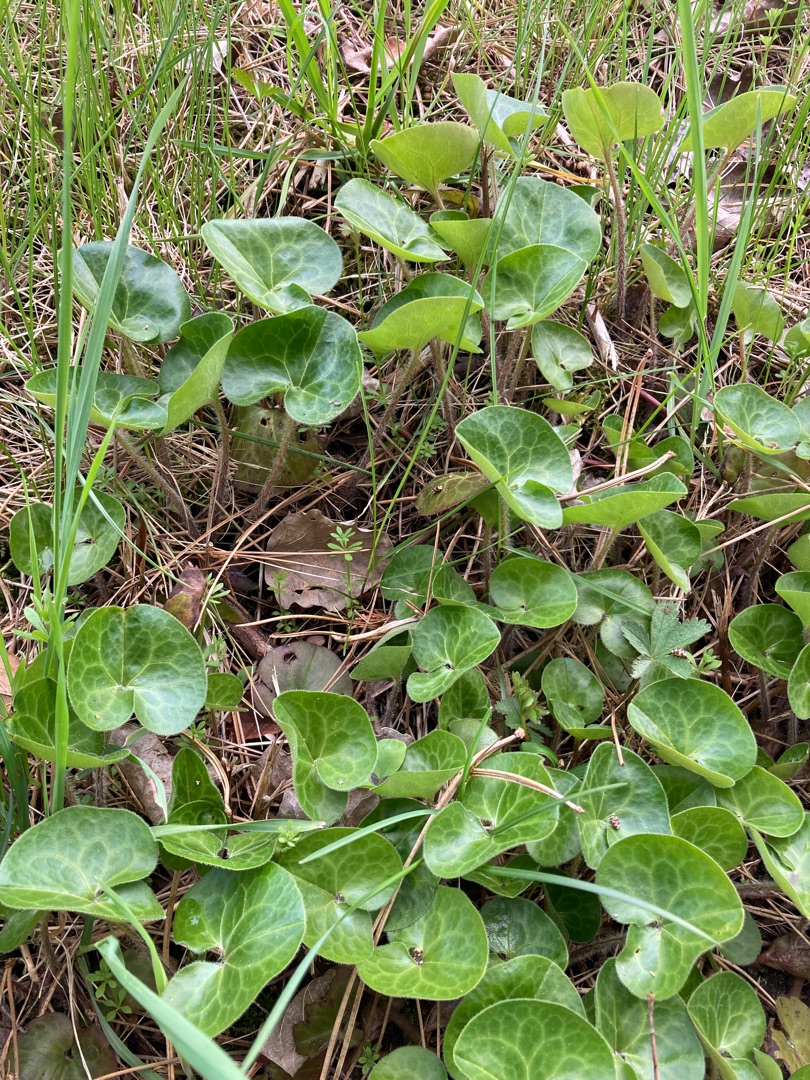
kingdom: Plantae
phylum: Tracheophyta
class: Magnoliopsida
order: Piperales
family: Aristolochiaceae
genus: Asarum
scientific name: Asarum europaeum
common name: Hasselurt
